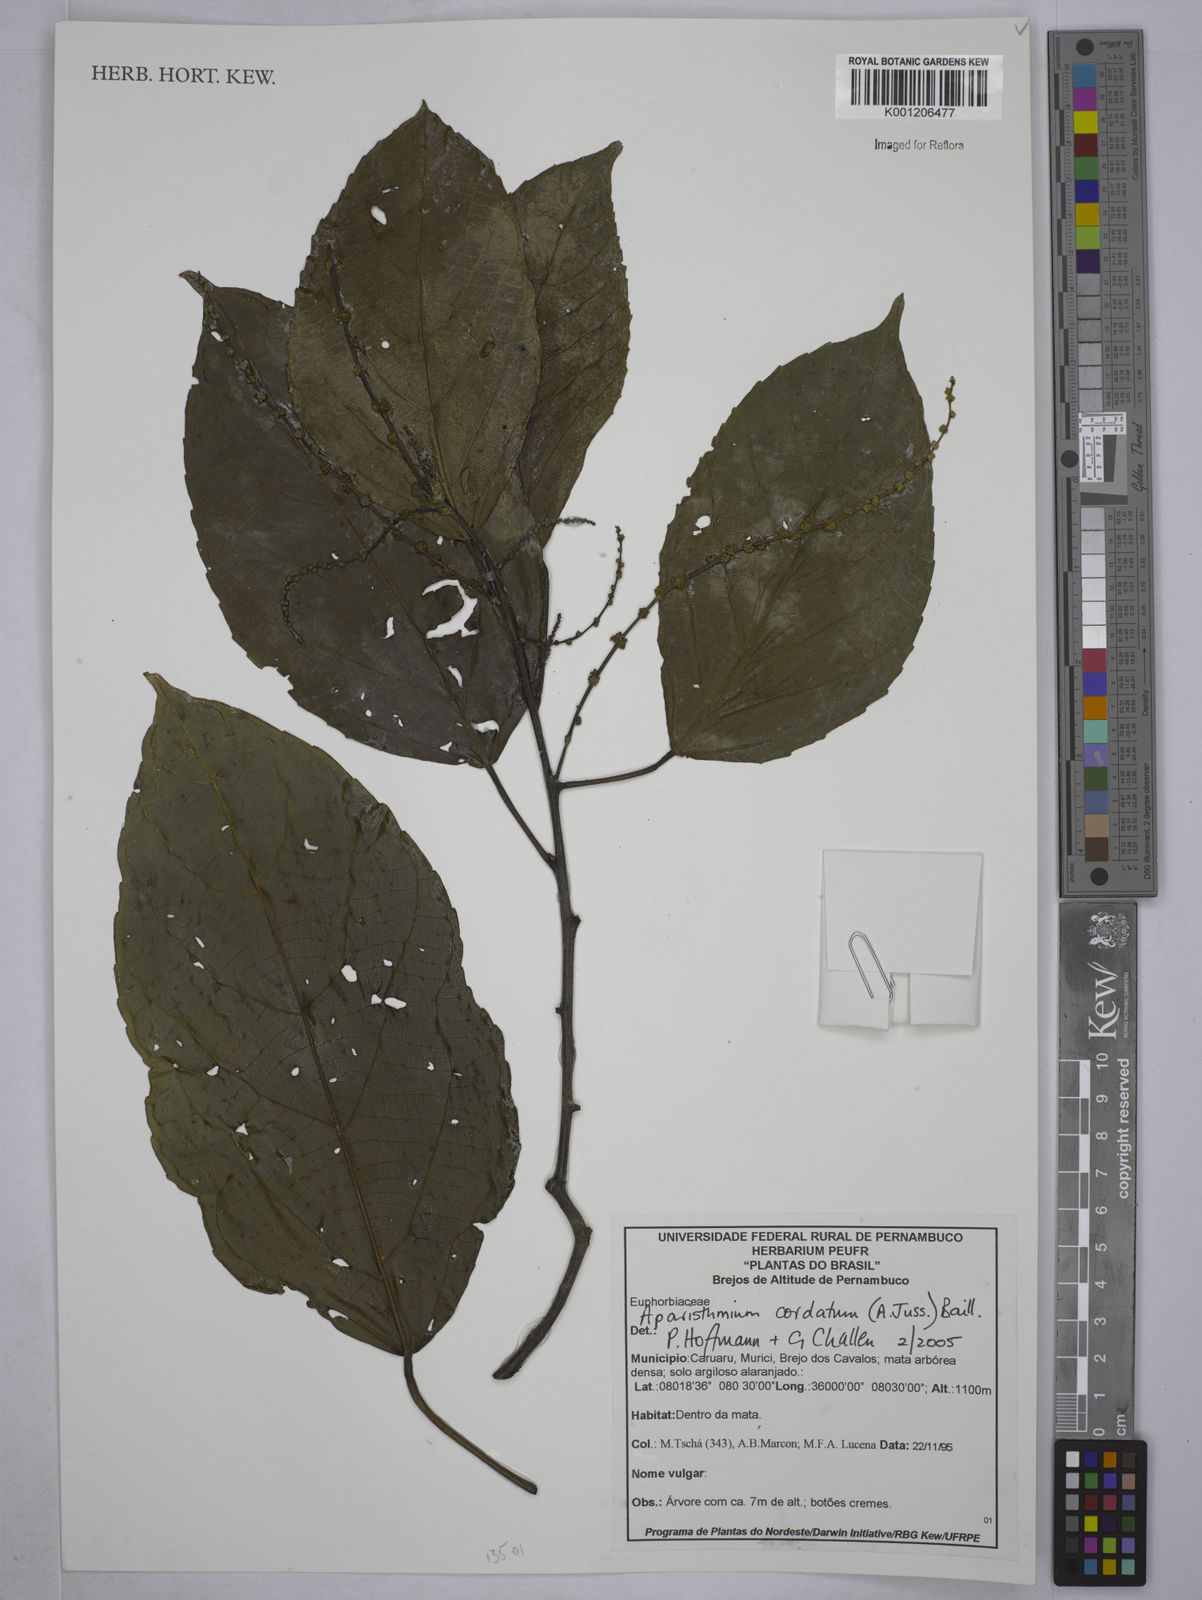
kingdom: Plantae
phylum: Tracheophyta
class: Magnoliopsida
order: Malpighiales
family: Euphorbiaceae
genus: Aparisthmium
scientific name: Aparisthmium cordatum
